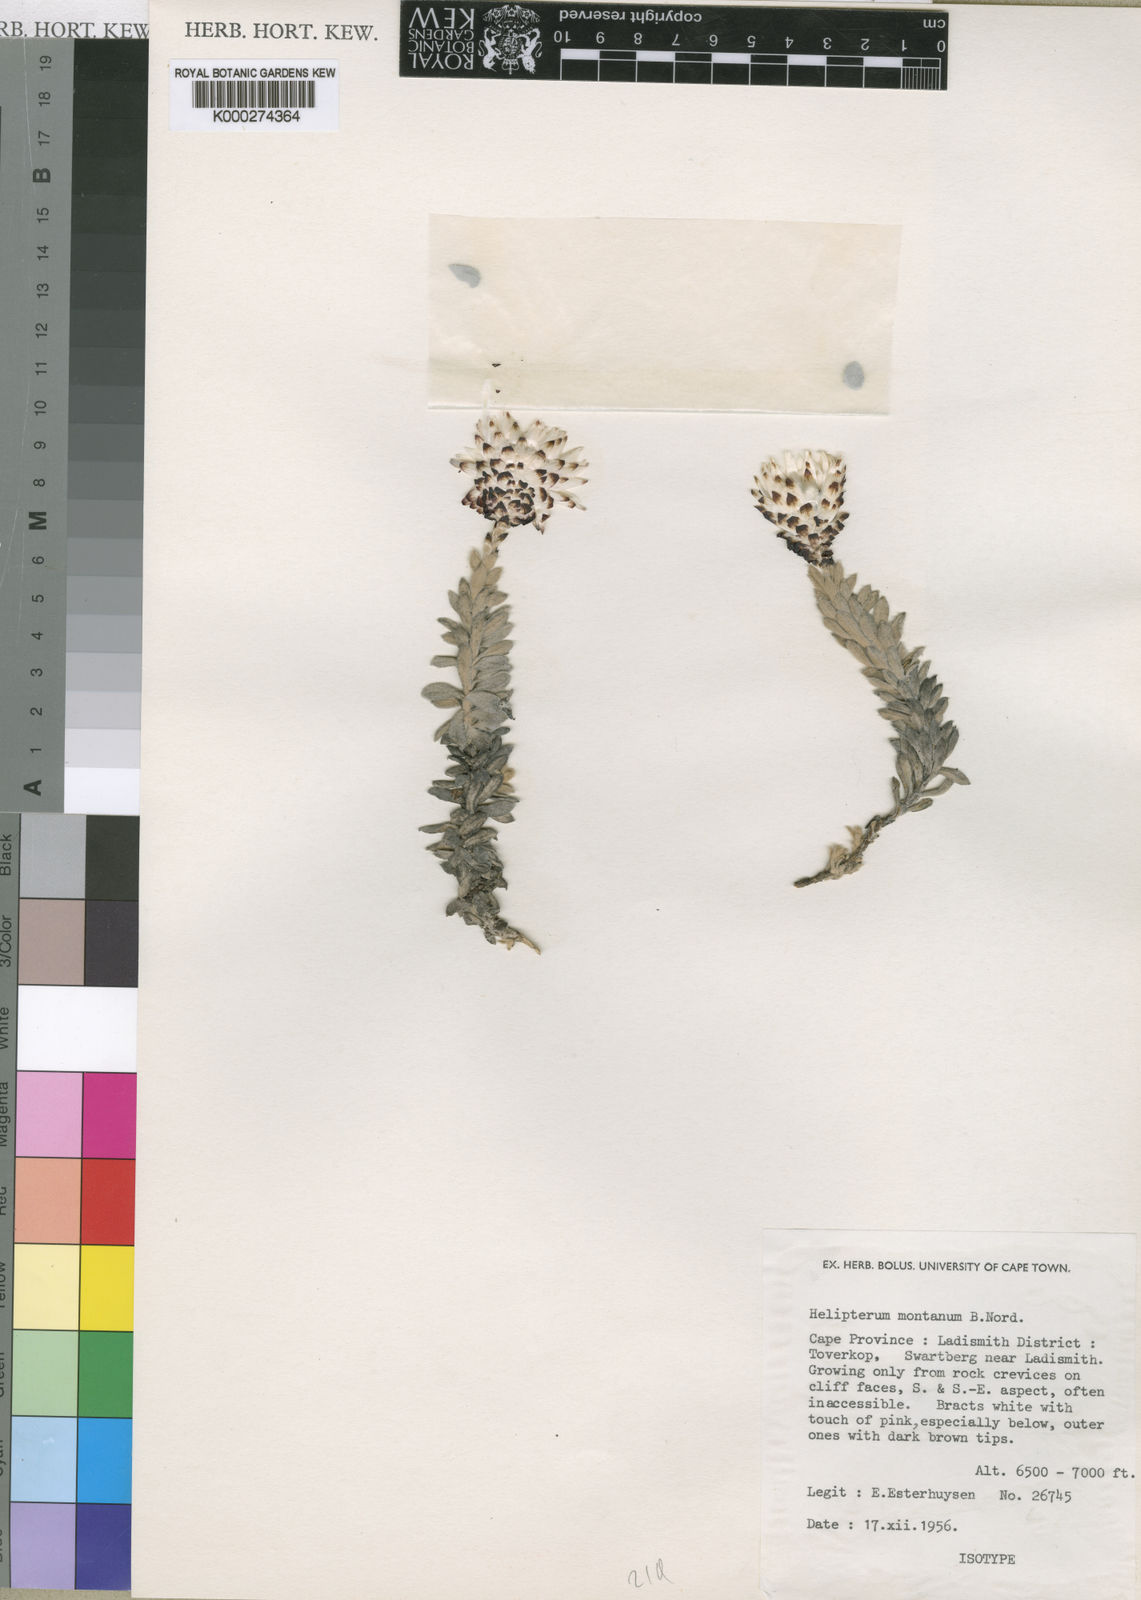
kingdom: Plantae
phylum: Tracheophyta
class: Magnoliopsida
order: Asterales
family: Asteraceae
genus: Syncarpha
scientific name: Syncarpha montana
